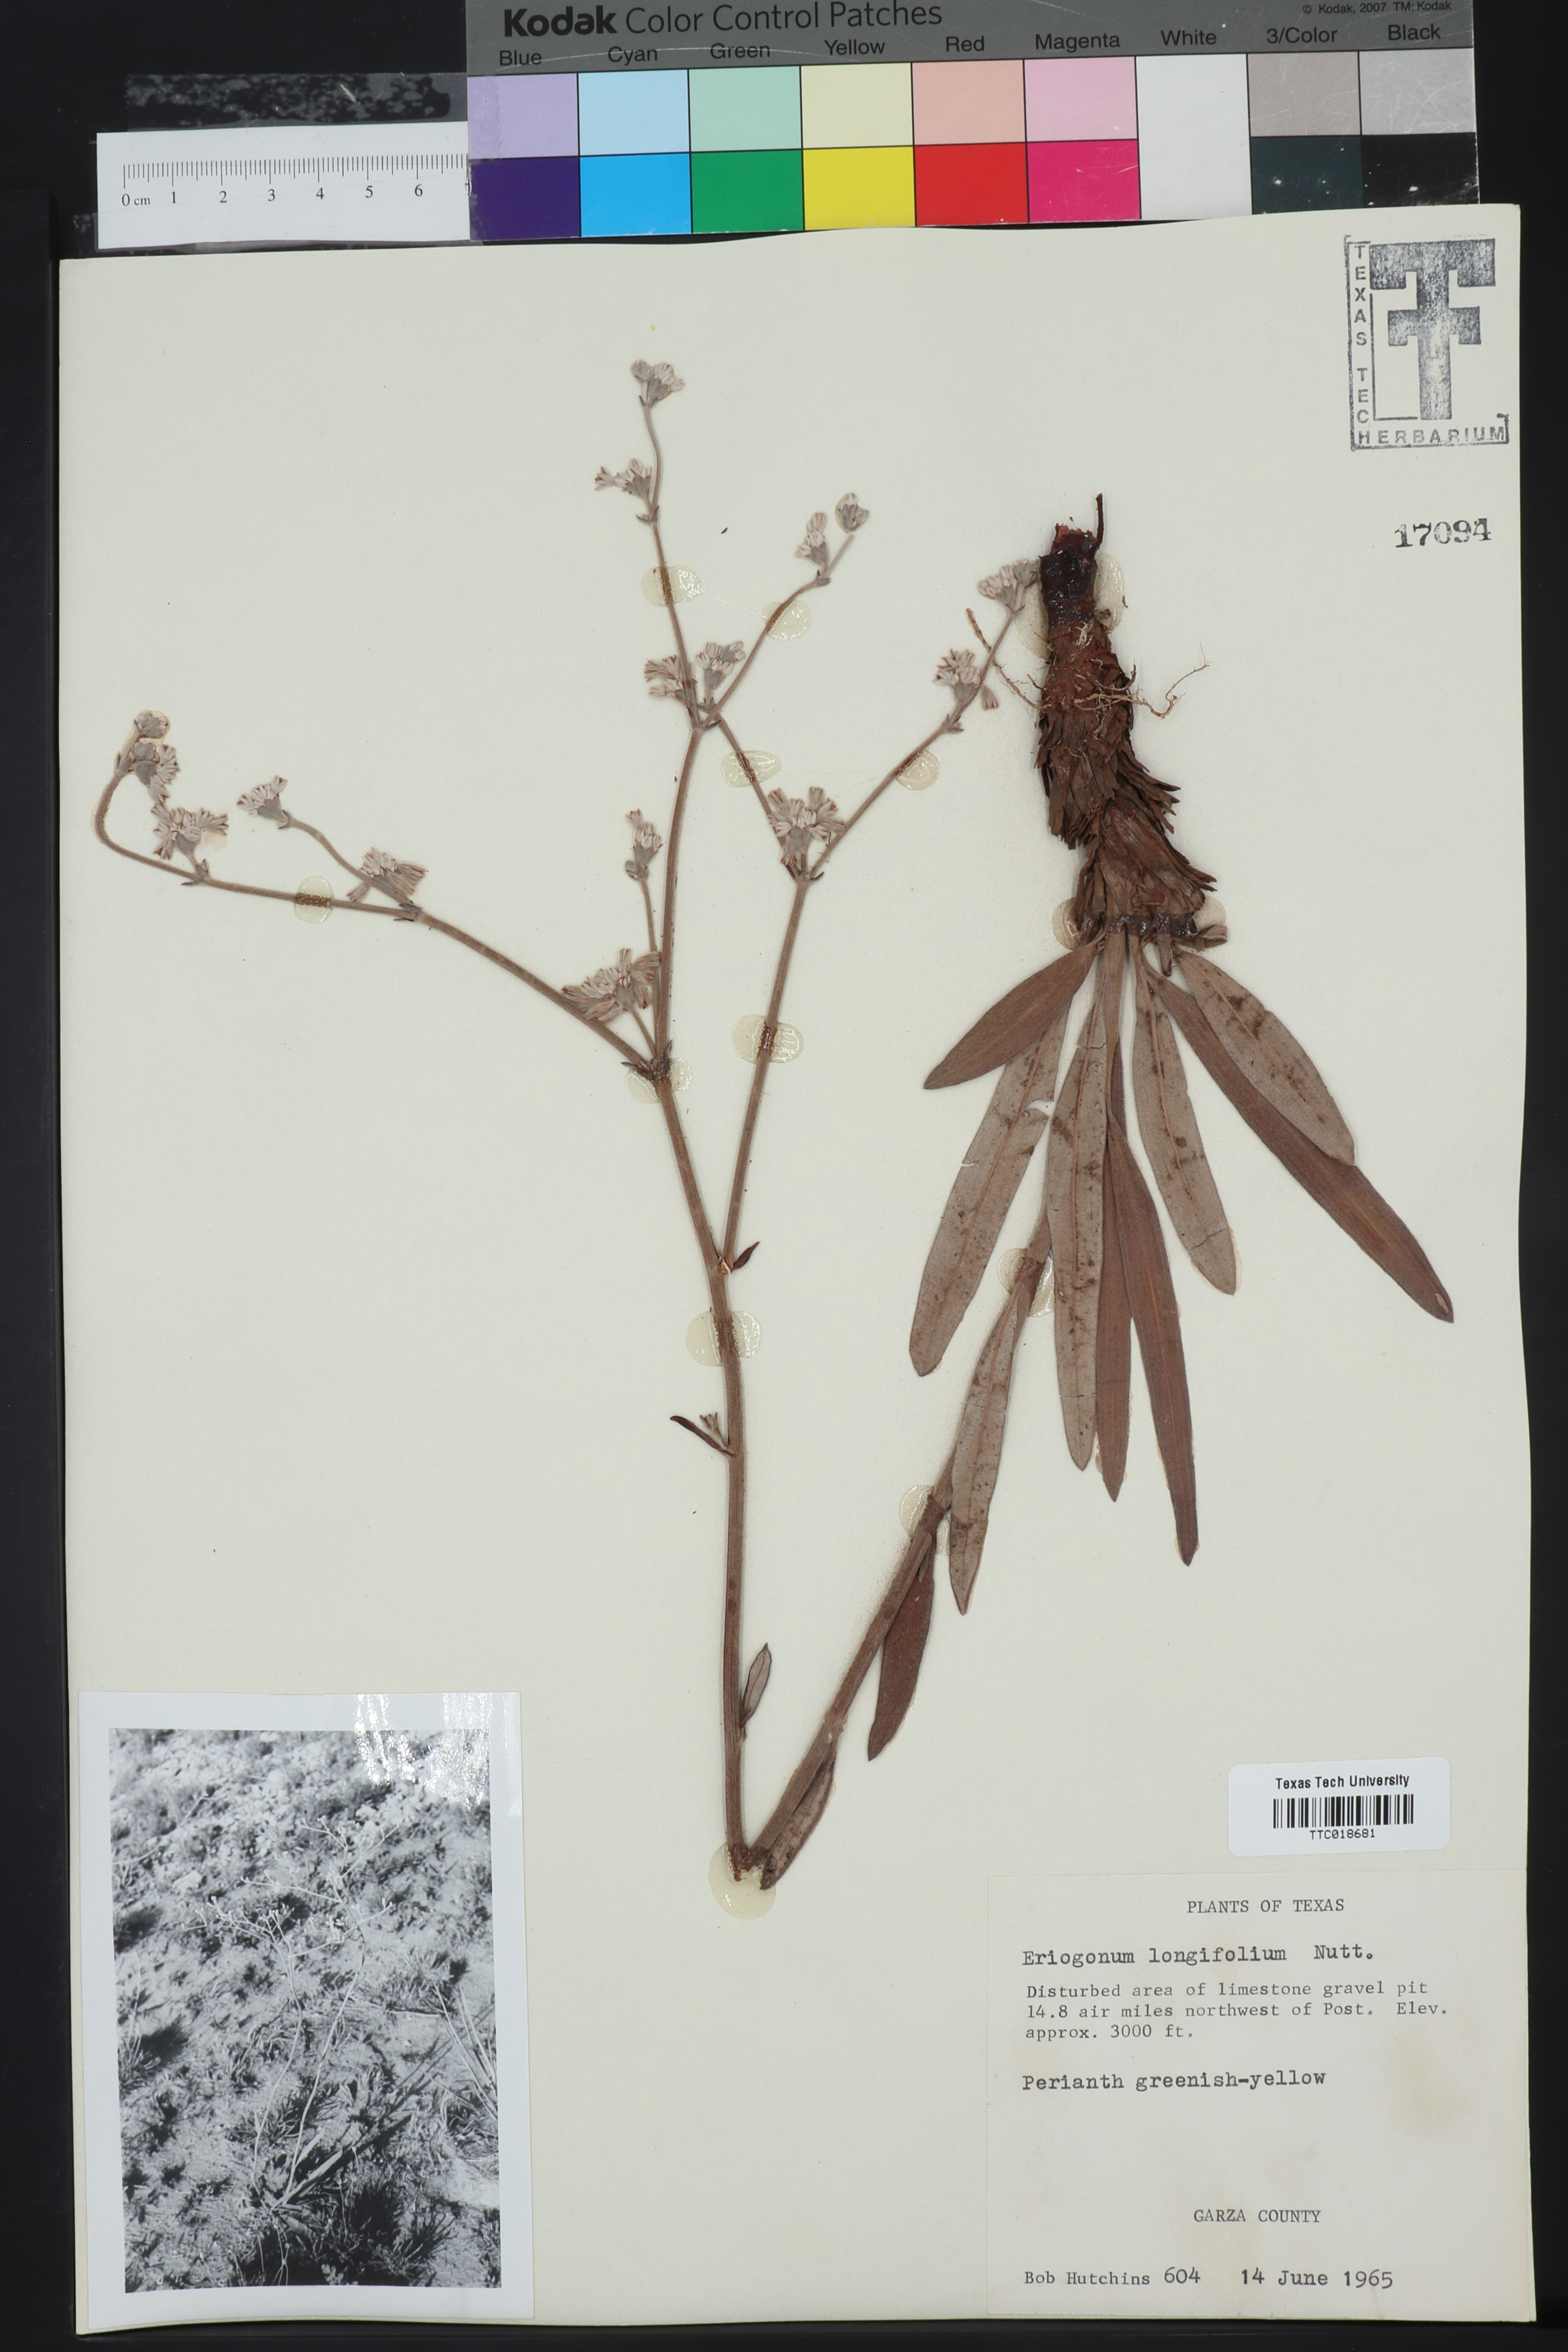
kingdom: Plantae
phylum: Tracheophyta
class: Magnoliopsida
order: Caryophyllales
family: Polygonaceae
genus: Eriogonum
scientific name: Eriogonum longifolium
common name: Longleaf wild buckwheat
